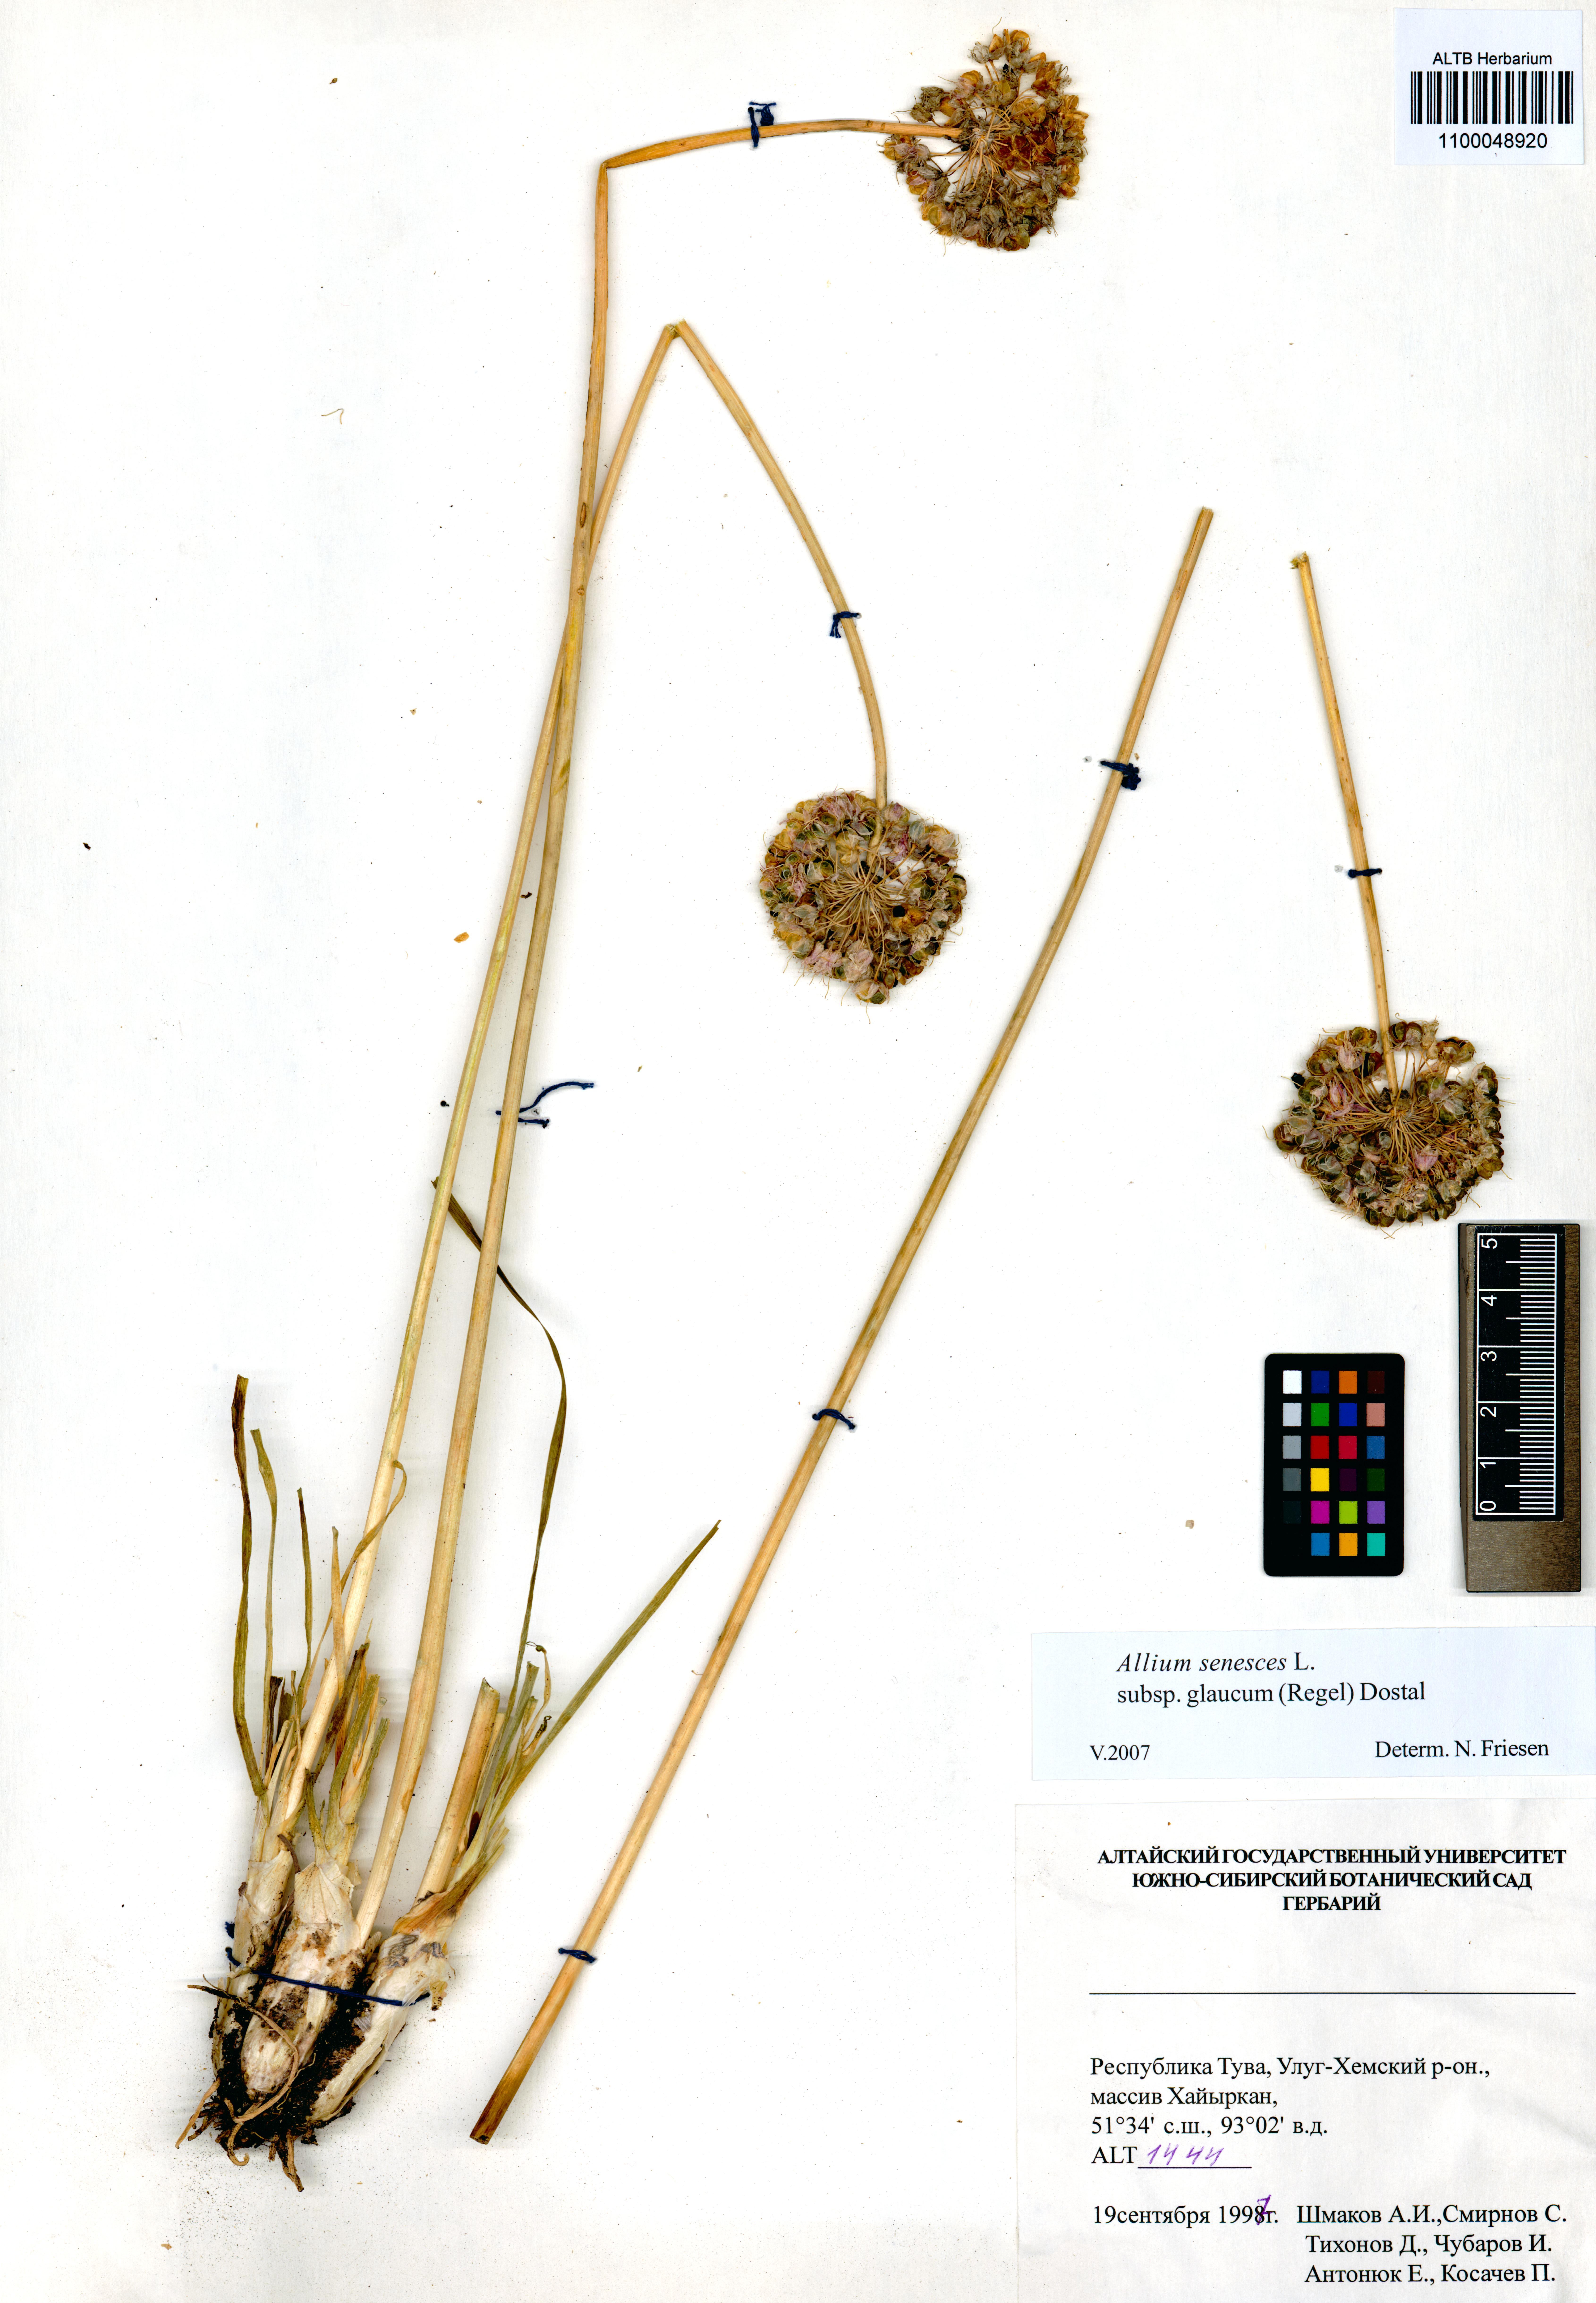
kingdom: Plantae
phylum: Tracheophyta
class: Liliopsida
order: Asparagales
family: Amaryllidaceae
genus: Allium
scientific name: Allium senescens
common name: German garlic
